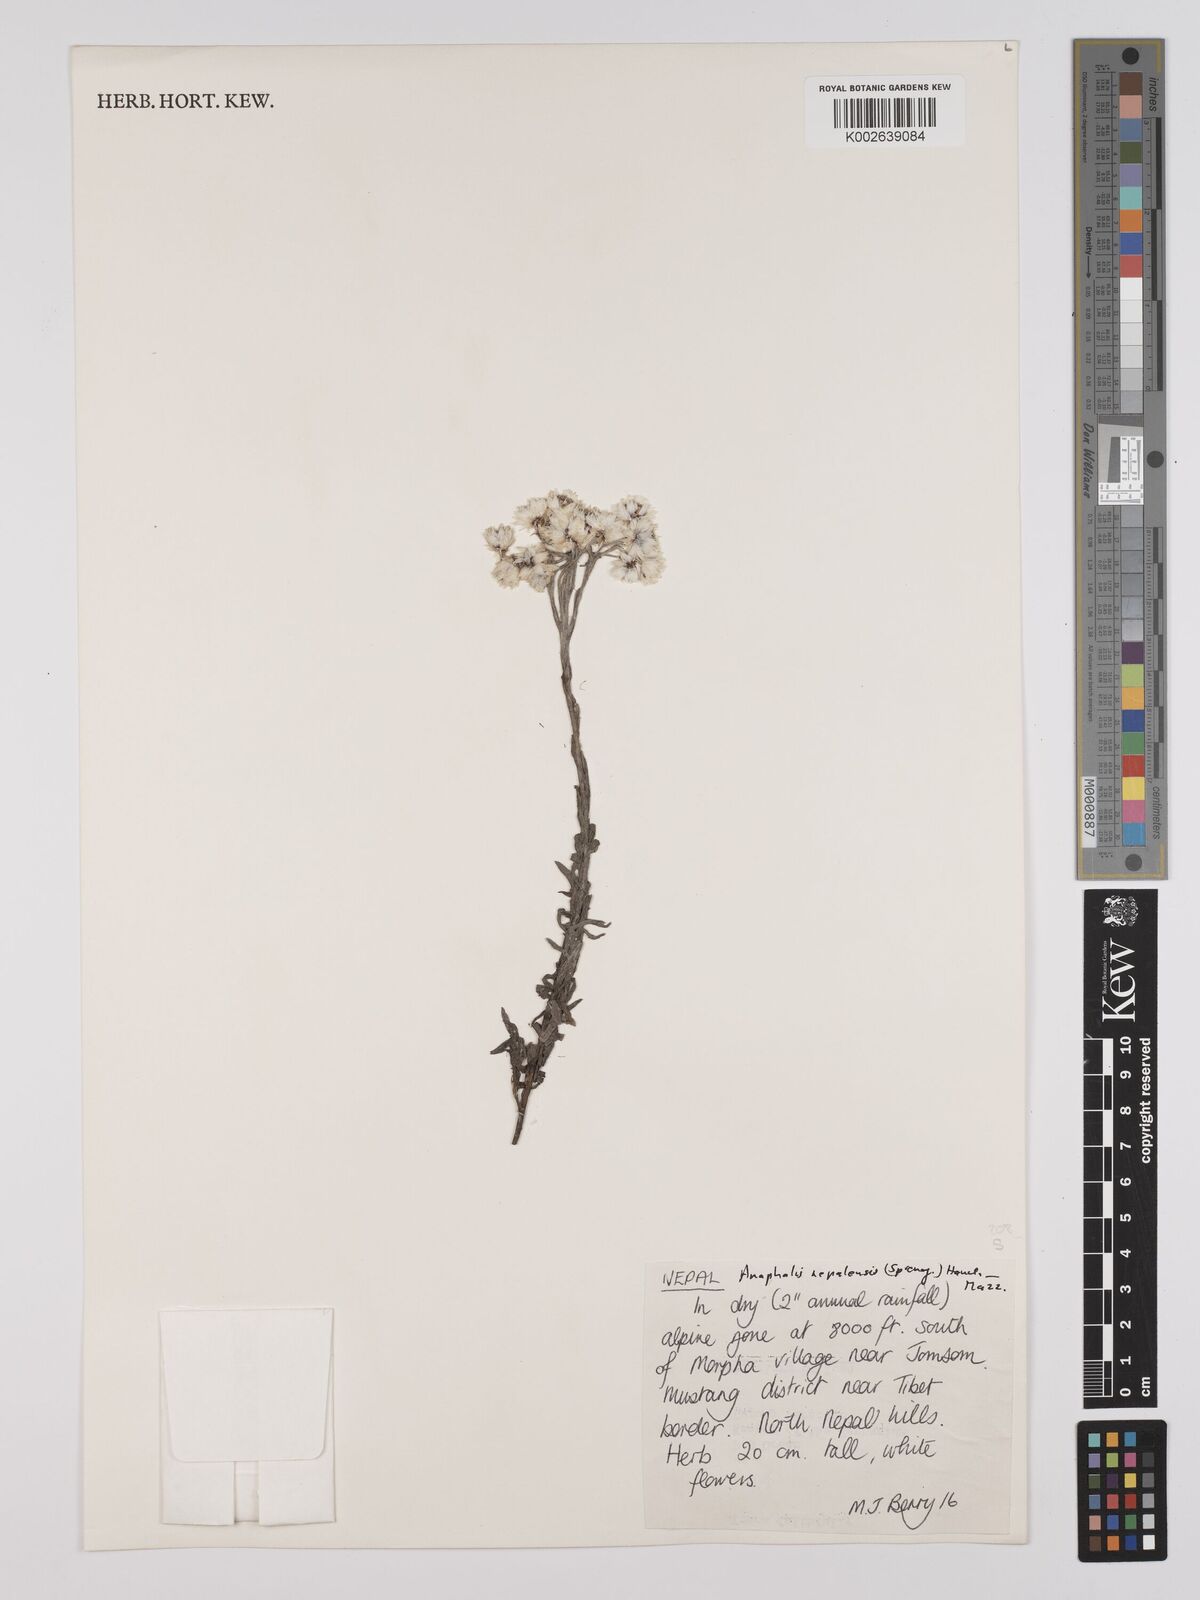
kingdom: Plantae
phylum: Tracheophyta
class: Magnoliopsida
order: Asterales
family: Asteraceae
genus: Anaphalis
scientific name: Anaphalis nepalensis
